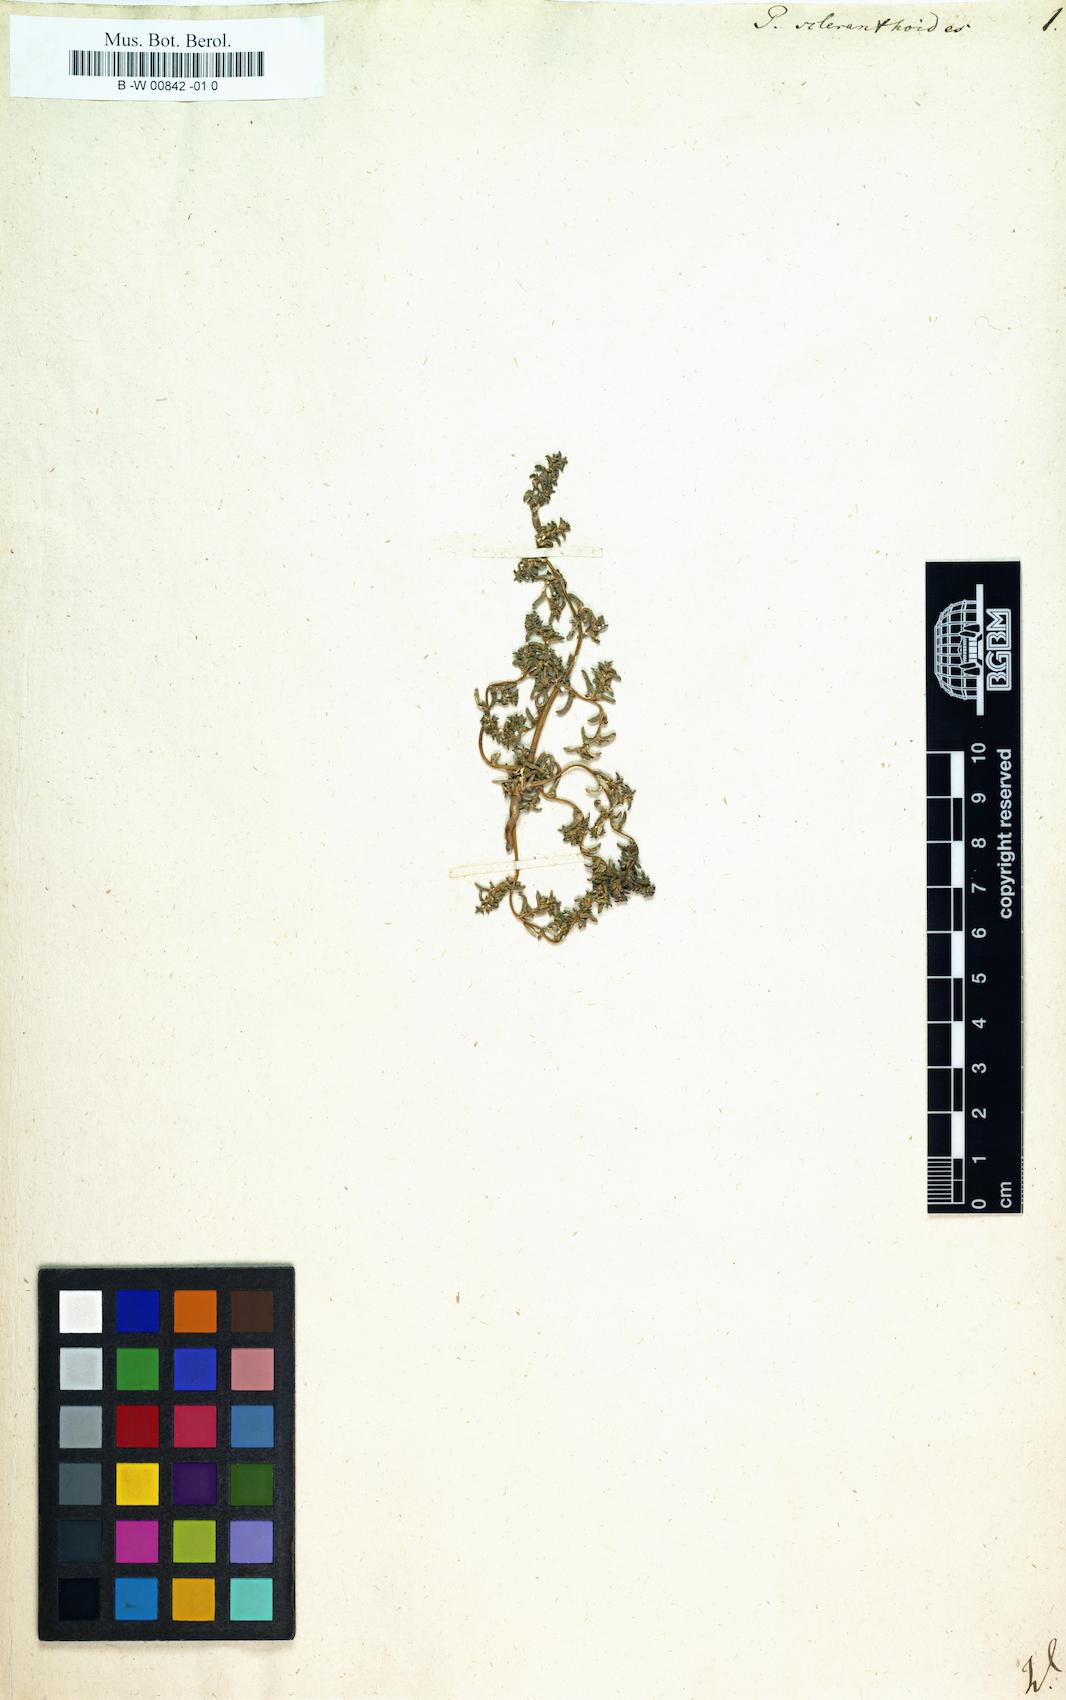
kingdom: Plantae
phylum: Tracheophyta
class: Magnoliopsida
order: Caryophyllales
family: Caryophyllaceae
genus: Cardionema
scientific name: Cardionema ramosissima
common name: Sandcarpet
